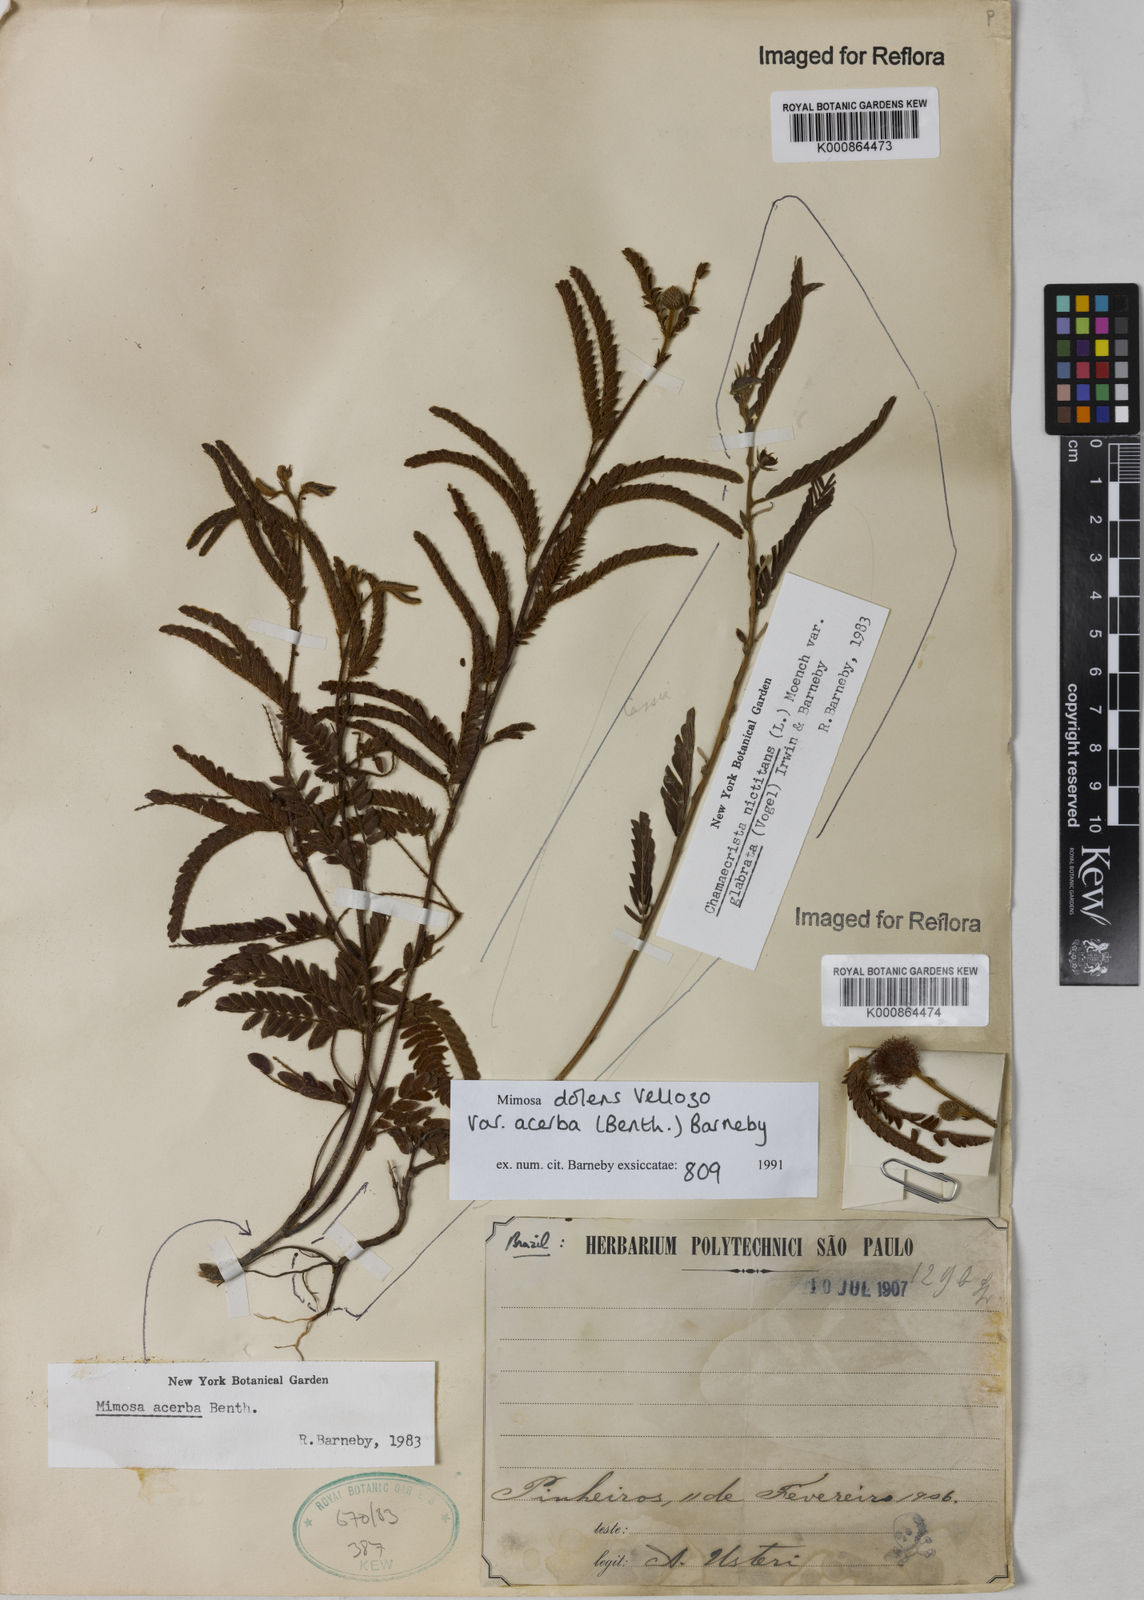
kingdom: Plantae
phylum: Tracheophyta
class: Magnoliopsida
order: Fabales
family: Fabaceae
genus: Mimosa
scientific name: Mimosa dolens
